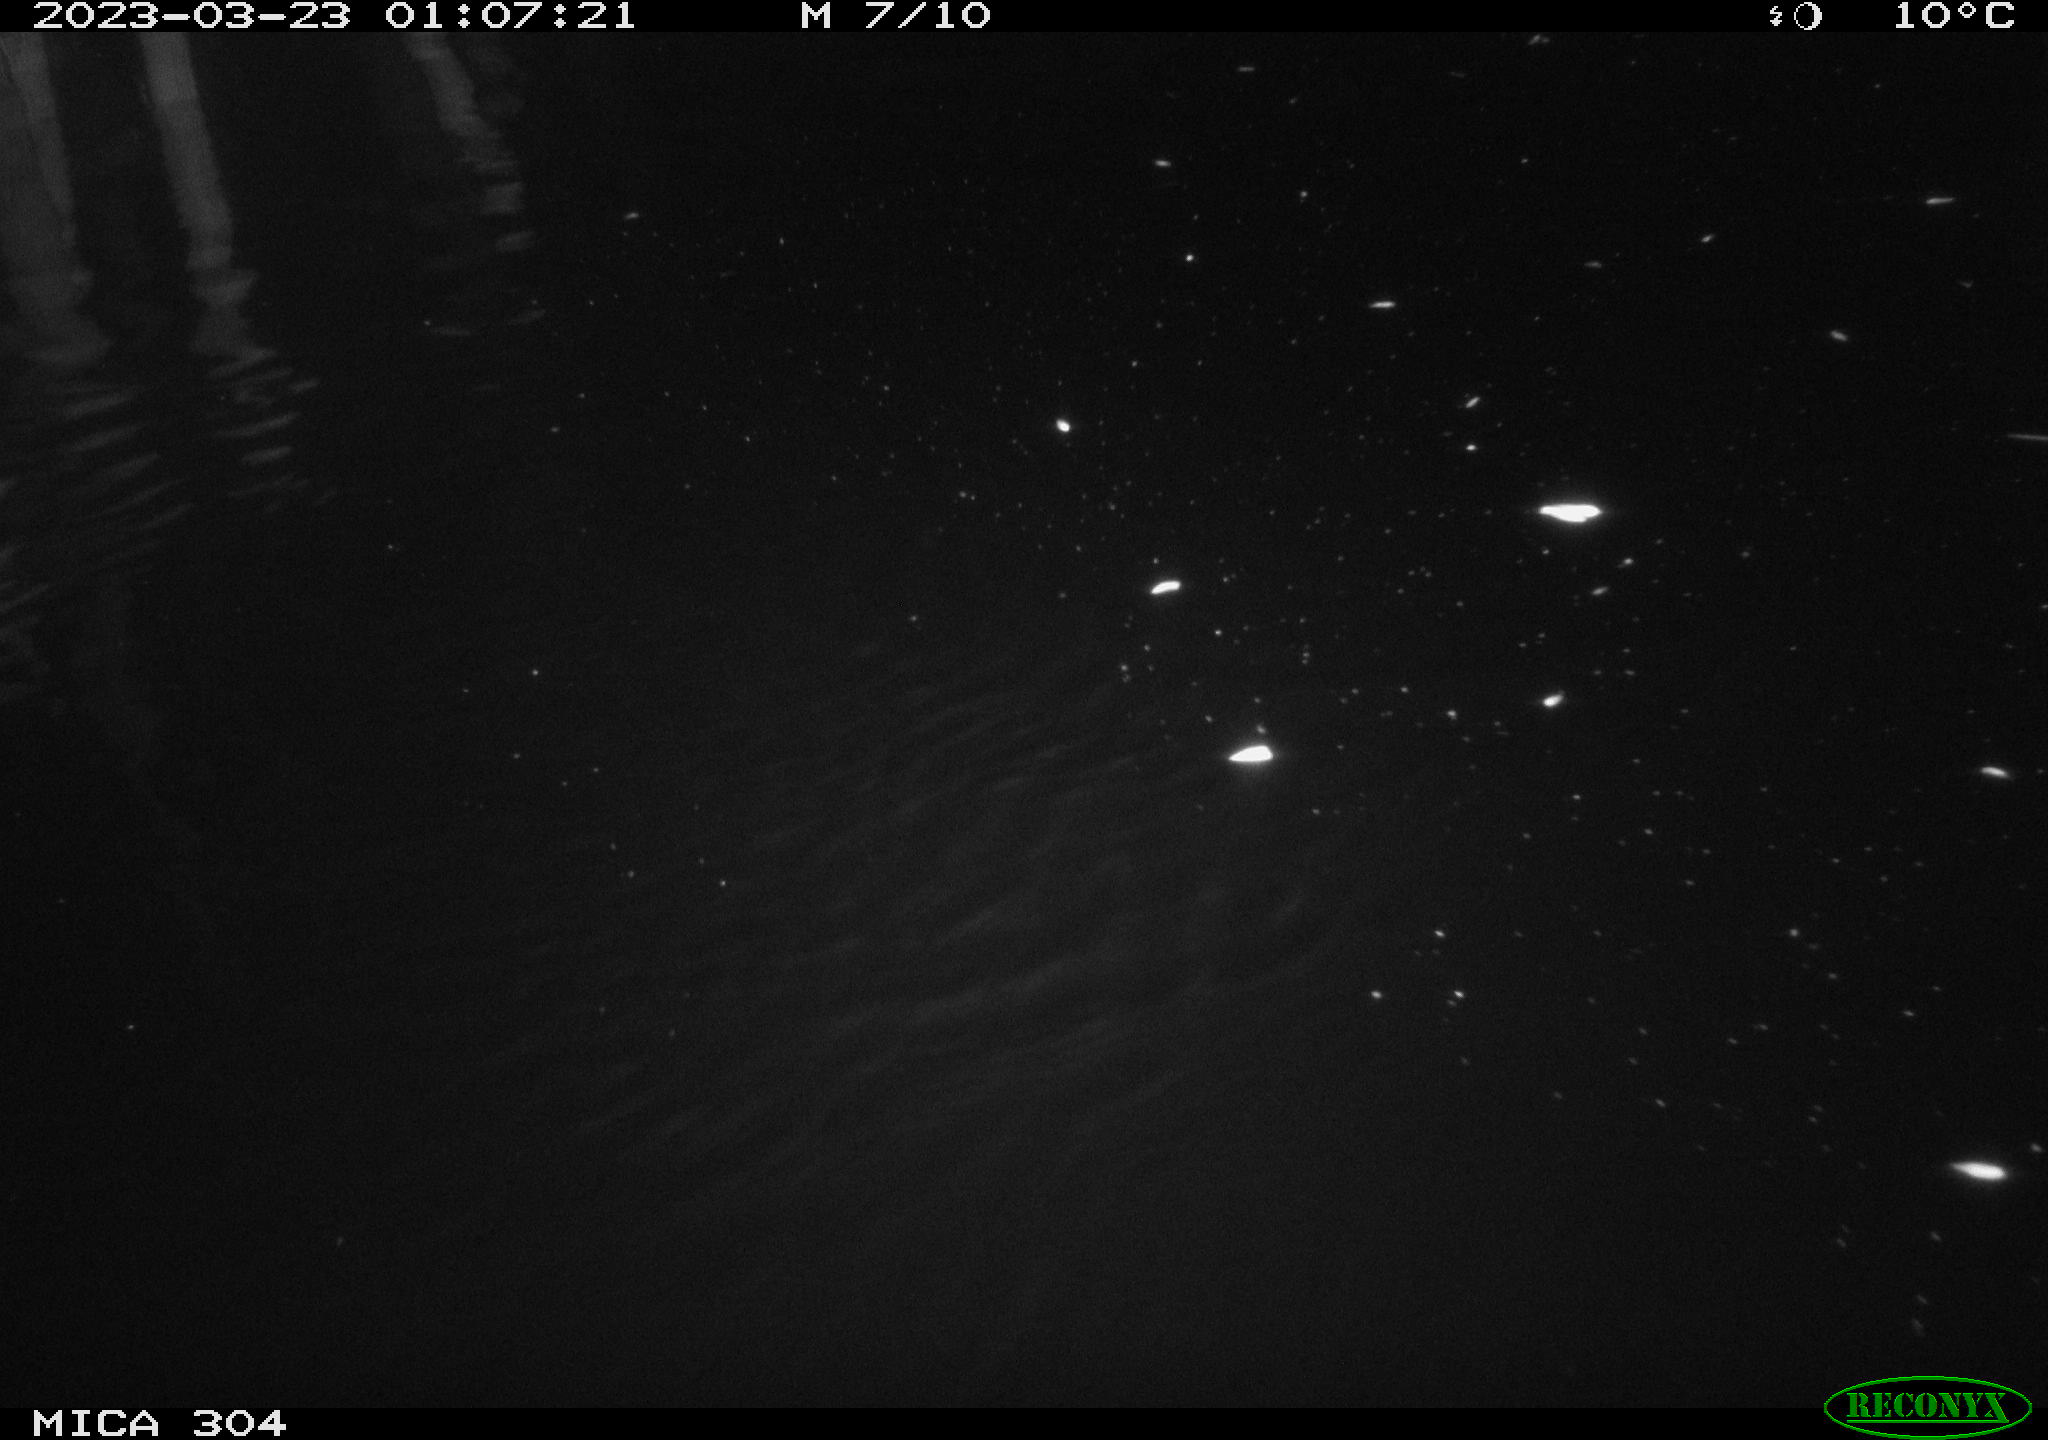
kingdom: Animalia
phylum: Chordata
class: Mammalia
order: Rodentia
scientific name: Rodentia
